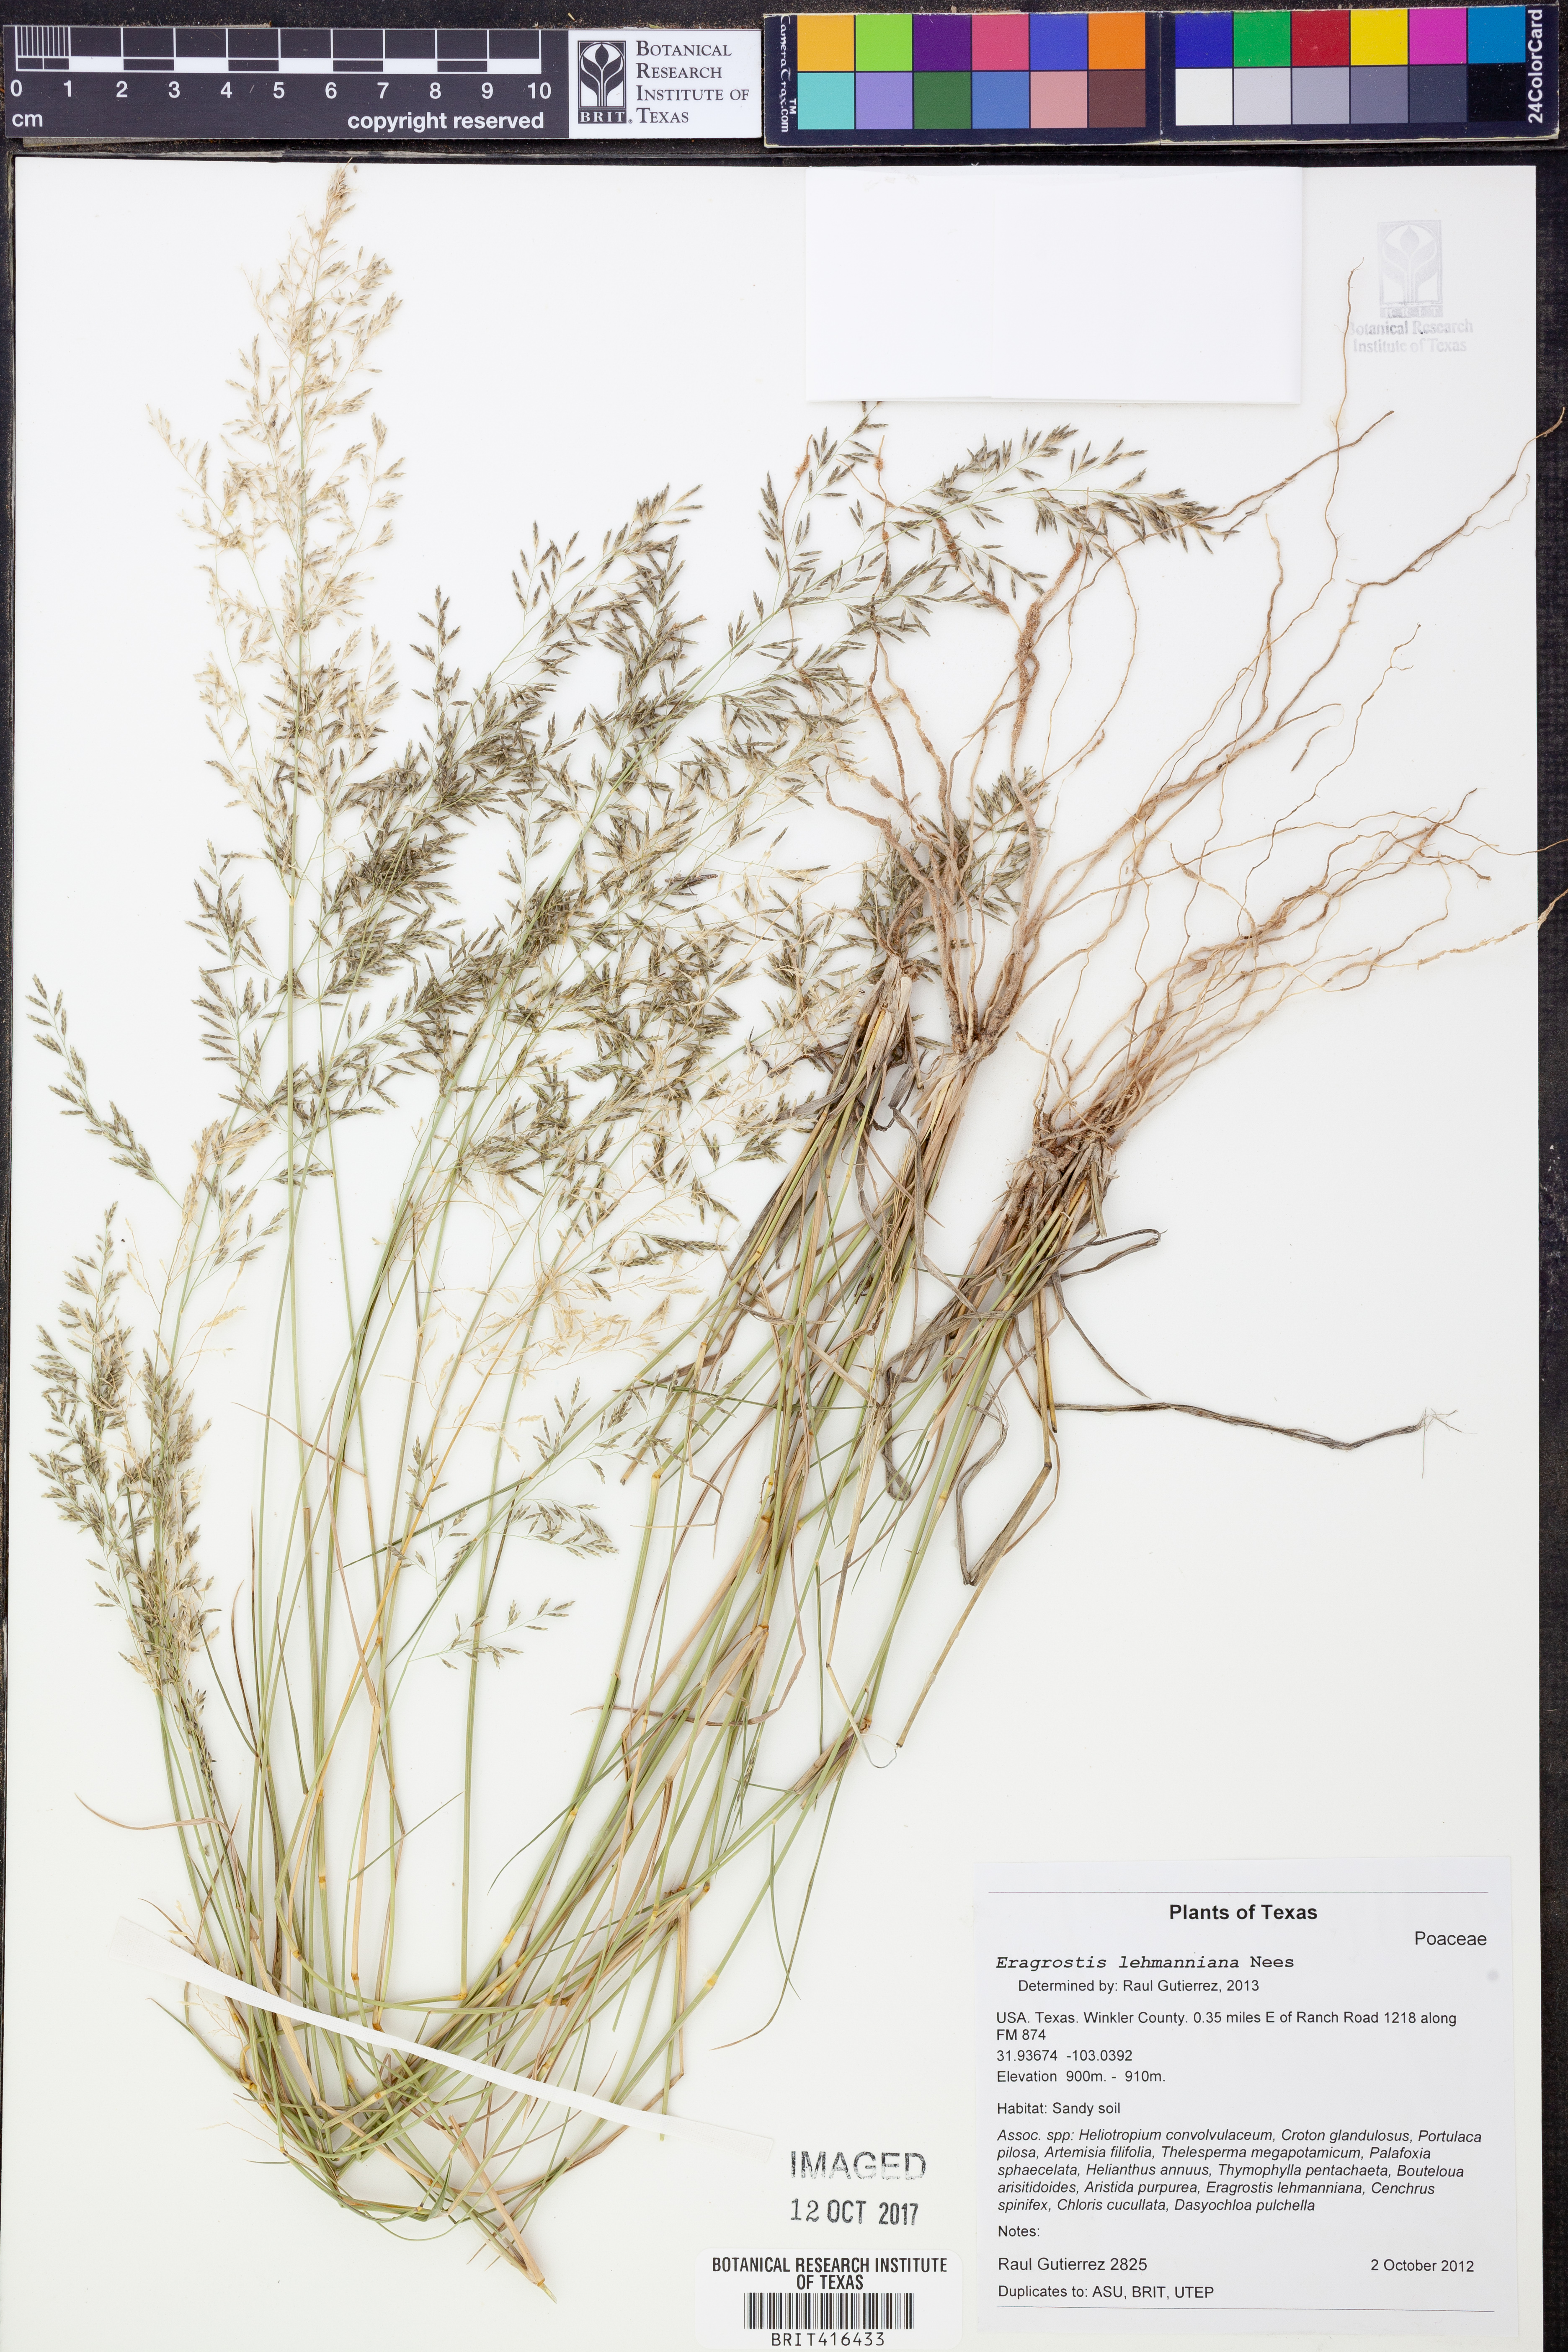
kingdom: Plantae
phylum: Tracheophyta
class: Liliopsida
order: Poales
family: Poaceae
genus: Eragrostis
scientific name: Eragrostis lehmanniana
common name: Lehmann lovegrass
